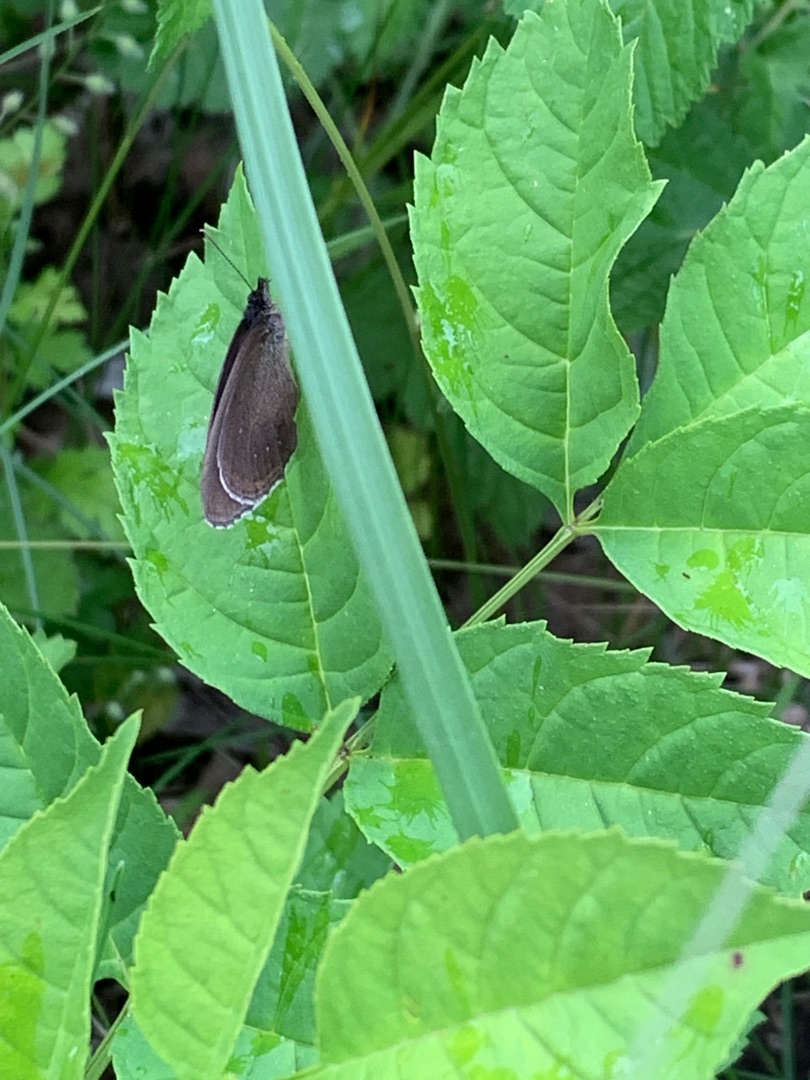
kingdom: Animalia
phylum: Arthropoda
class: Insecta
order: Lepidoptera
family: Nymphalidae
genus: Aphantopus
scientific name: Aphantopus hyperantus
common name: Engrandøje
